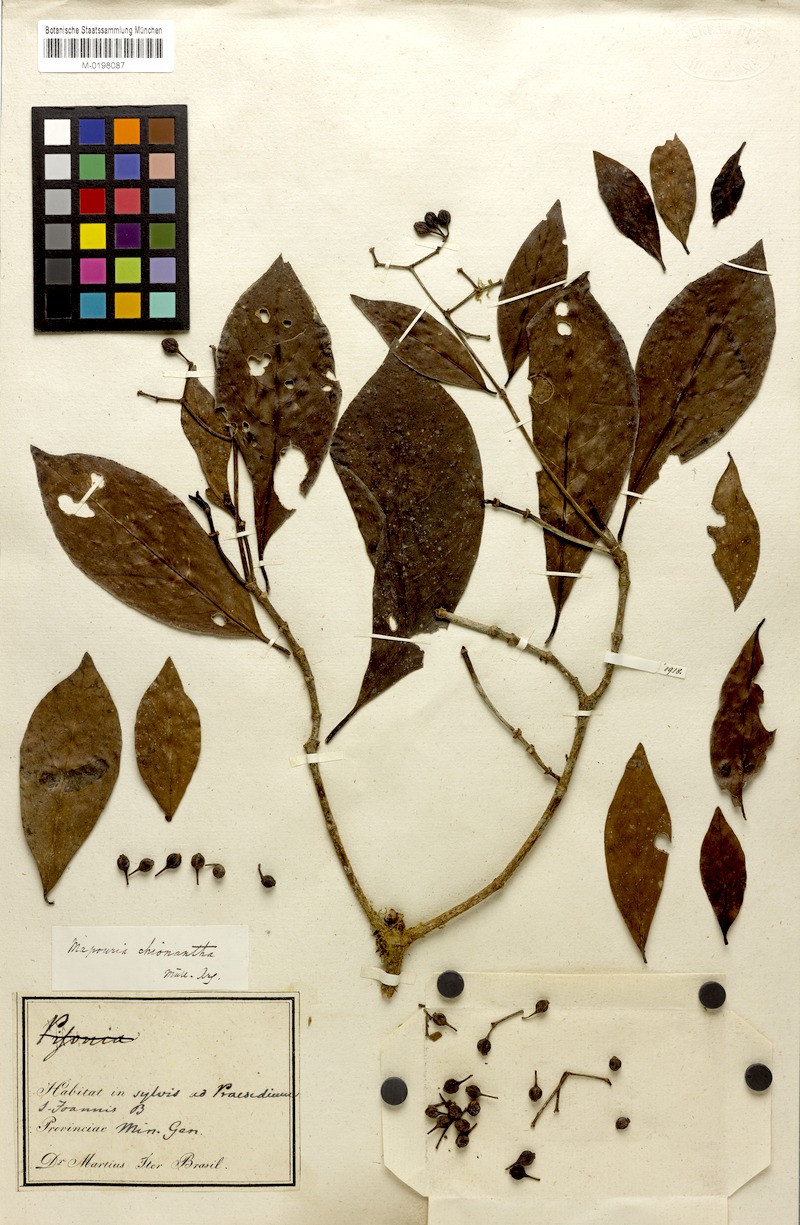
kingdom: Plantae
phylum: Tracheophyta
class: Magnoliopsida
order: Gentianales
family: Rubiaceae
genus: Psychotria
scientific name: Psychotria pedunculosa
